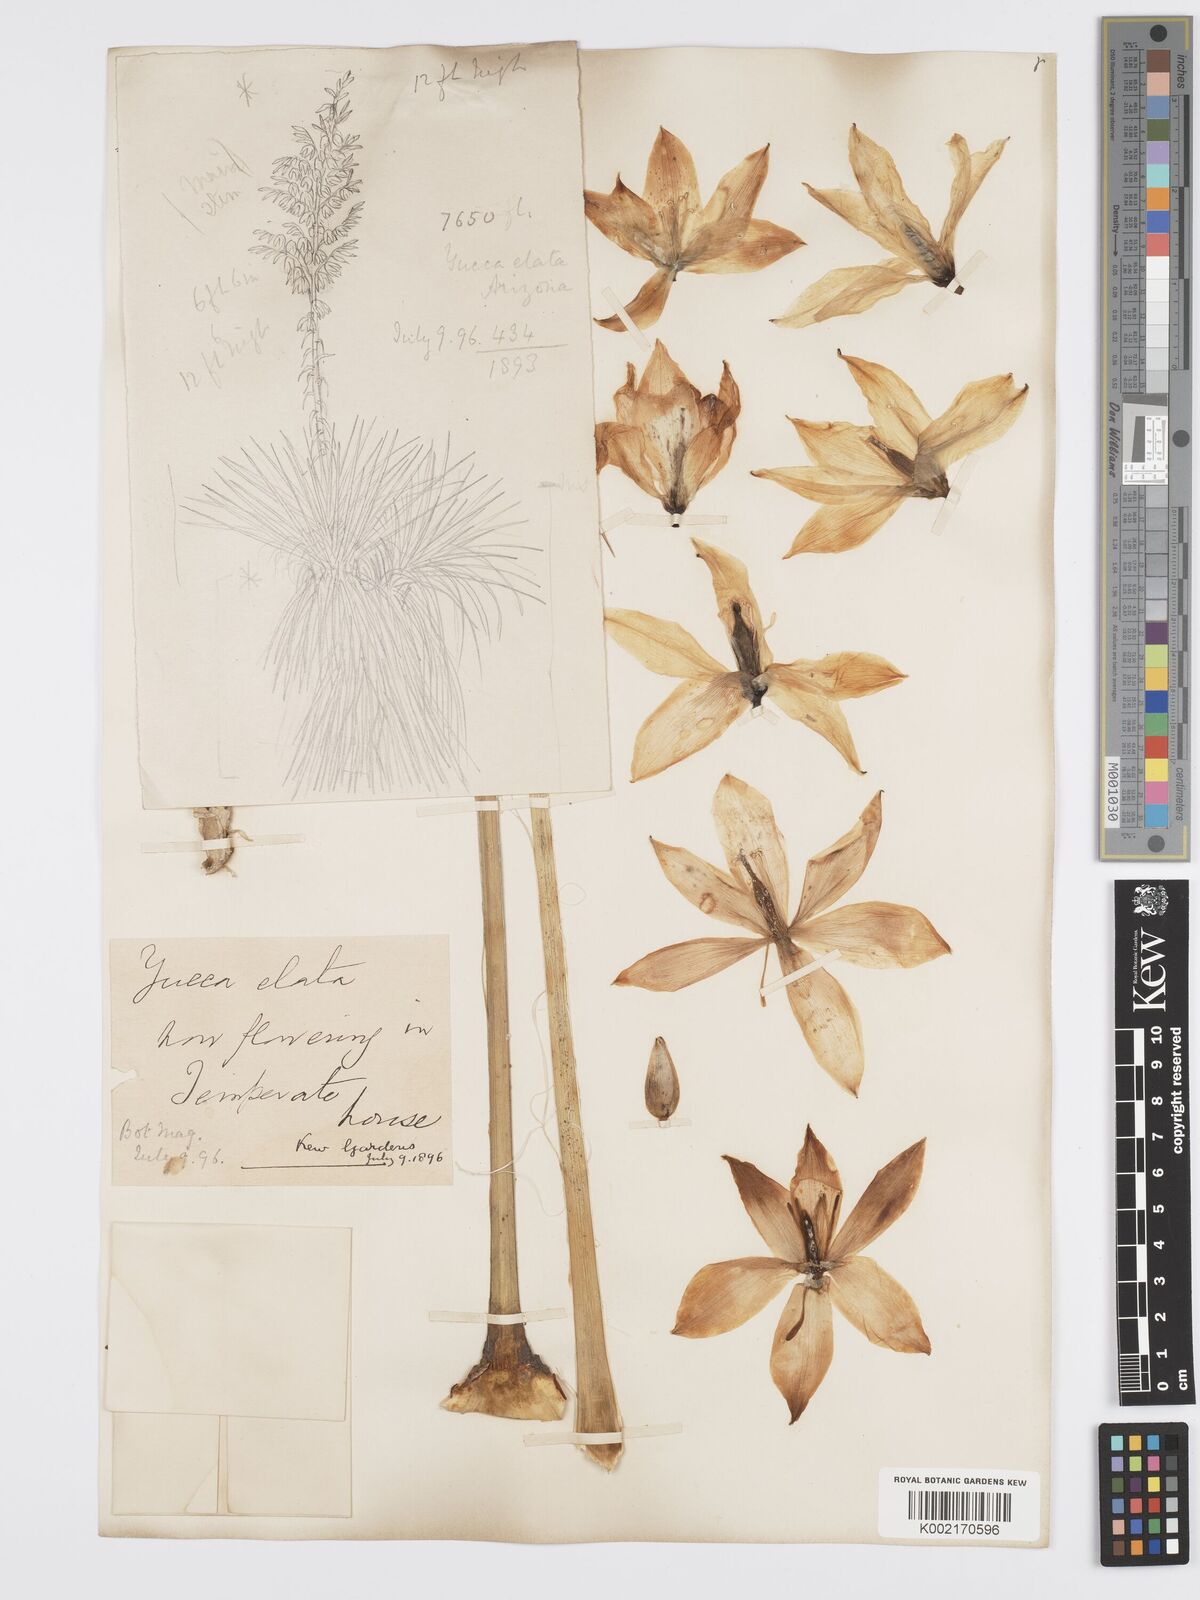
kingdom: Plantae
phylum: Tracheophyta
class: Liliopsida
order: Asparagales
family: Asparagaceae
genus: Yucca
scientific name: Yucca elata
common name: Palmella
